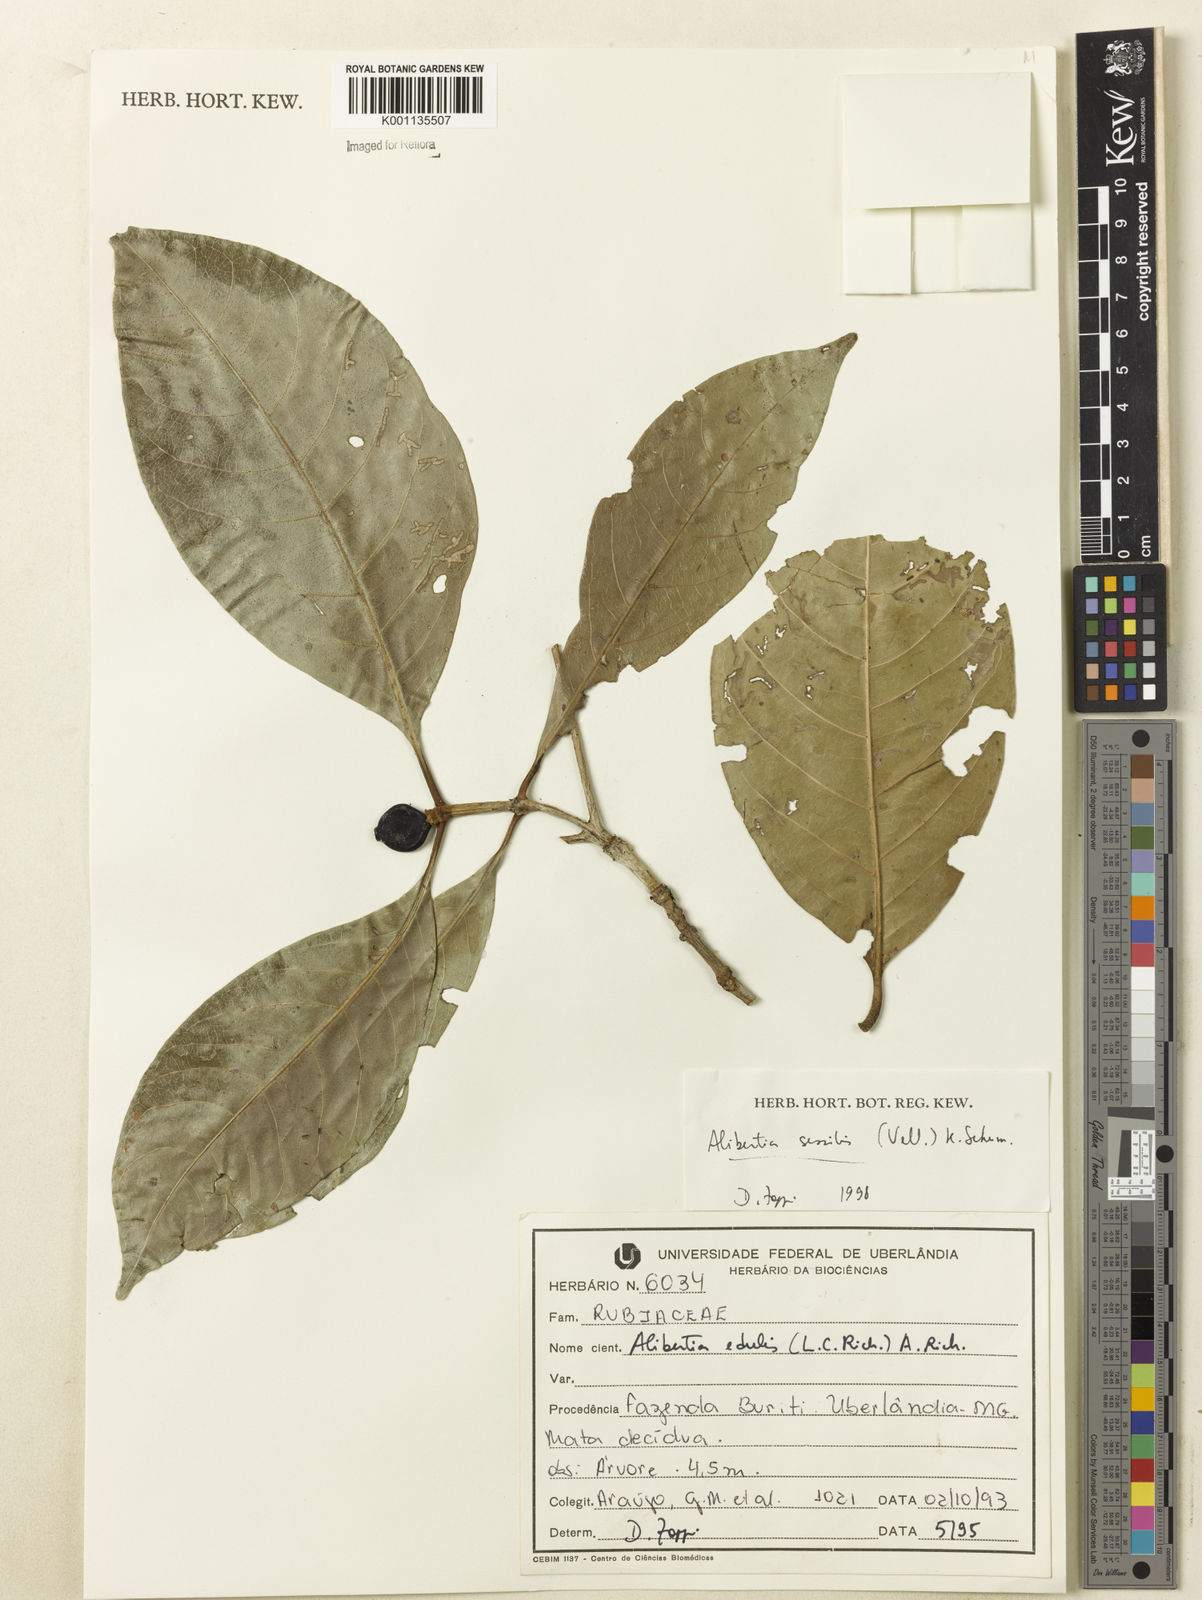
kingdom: Plantae
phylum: Tracheophyta
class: Magnoliopsida
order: Gentianales
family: Rubiaceae
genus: Cordiera
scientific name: Cordiera sessilis
